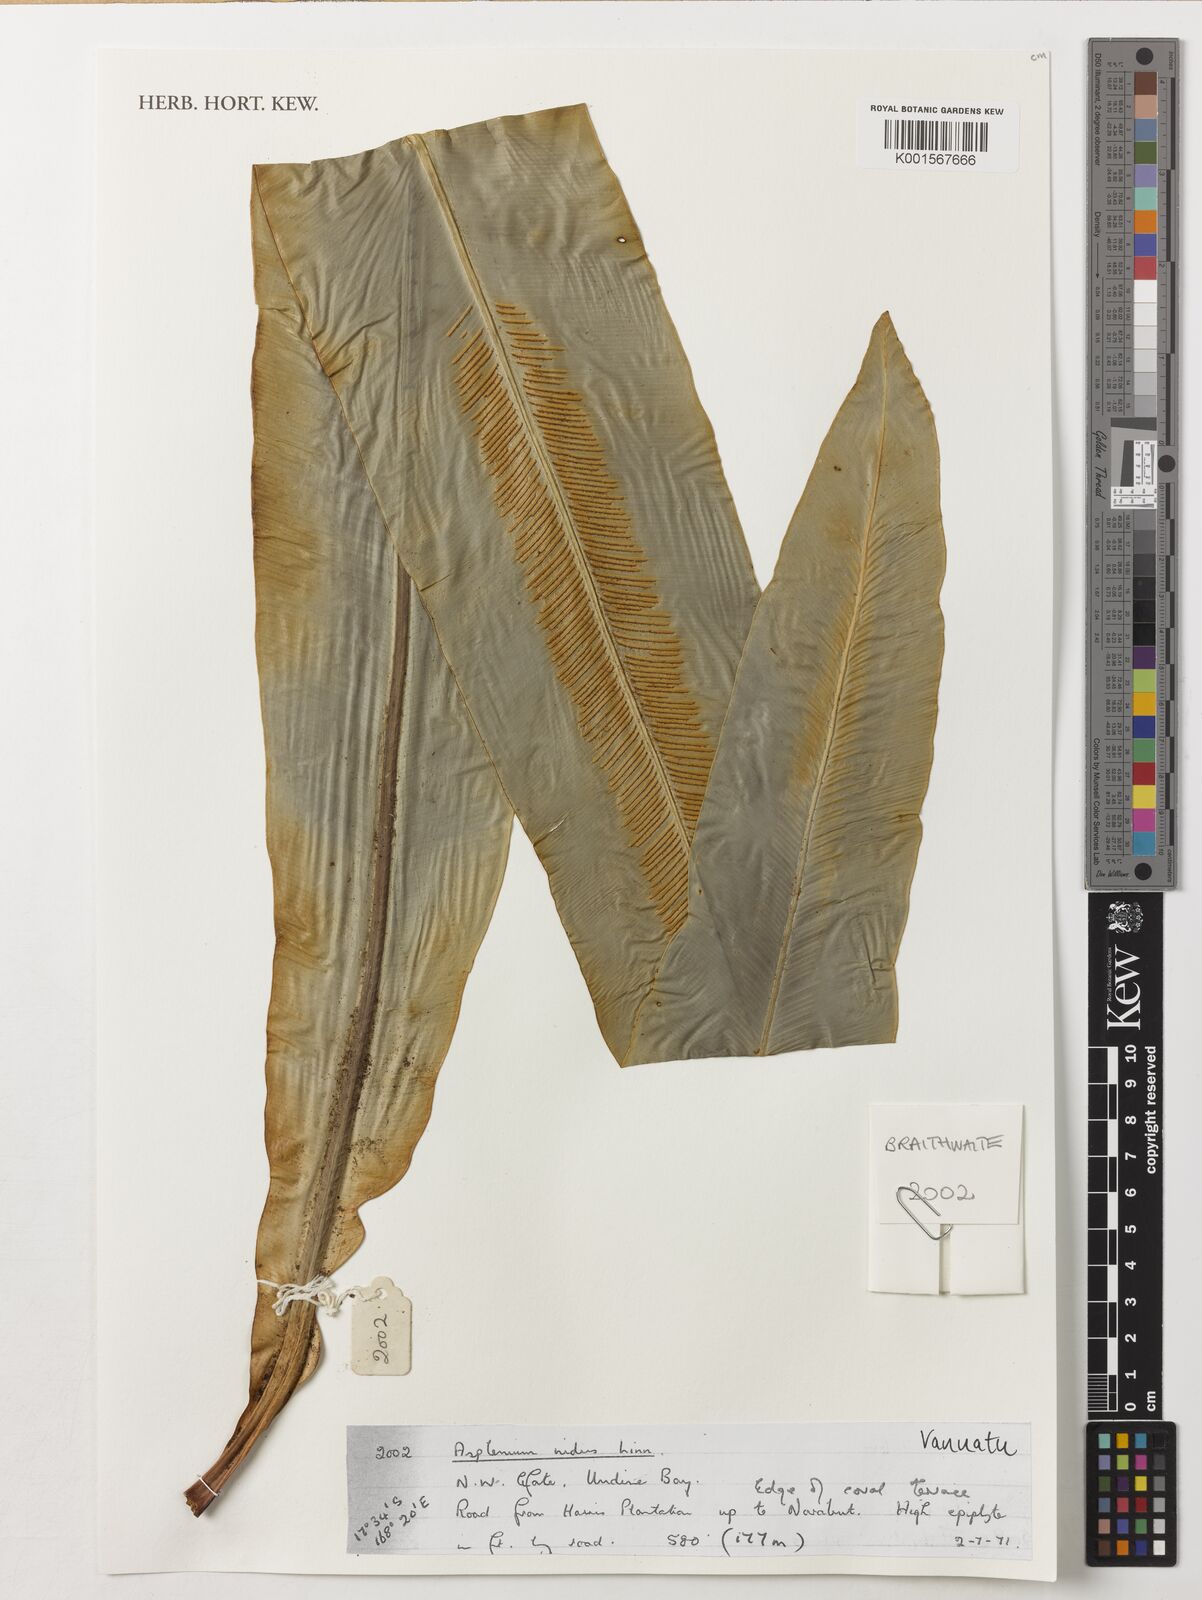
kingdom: Plantae
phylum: Tracheophyta
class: Polypodiopsida
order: Polypodiales
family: Aspleniaceae
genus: Asplenium
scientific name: Asplenium nidus
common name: Bird's-nest fern
